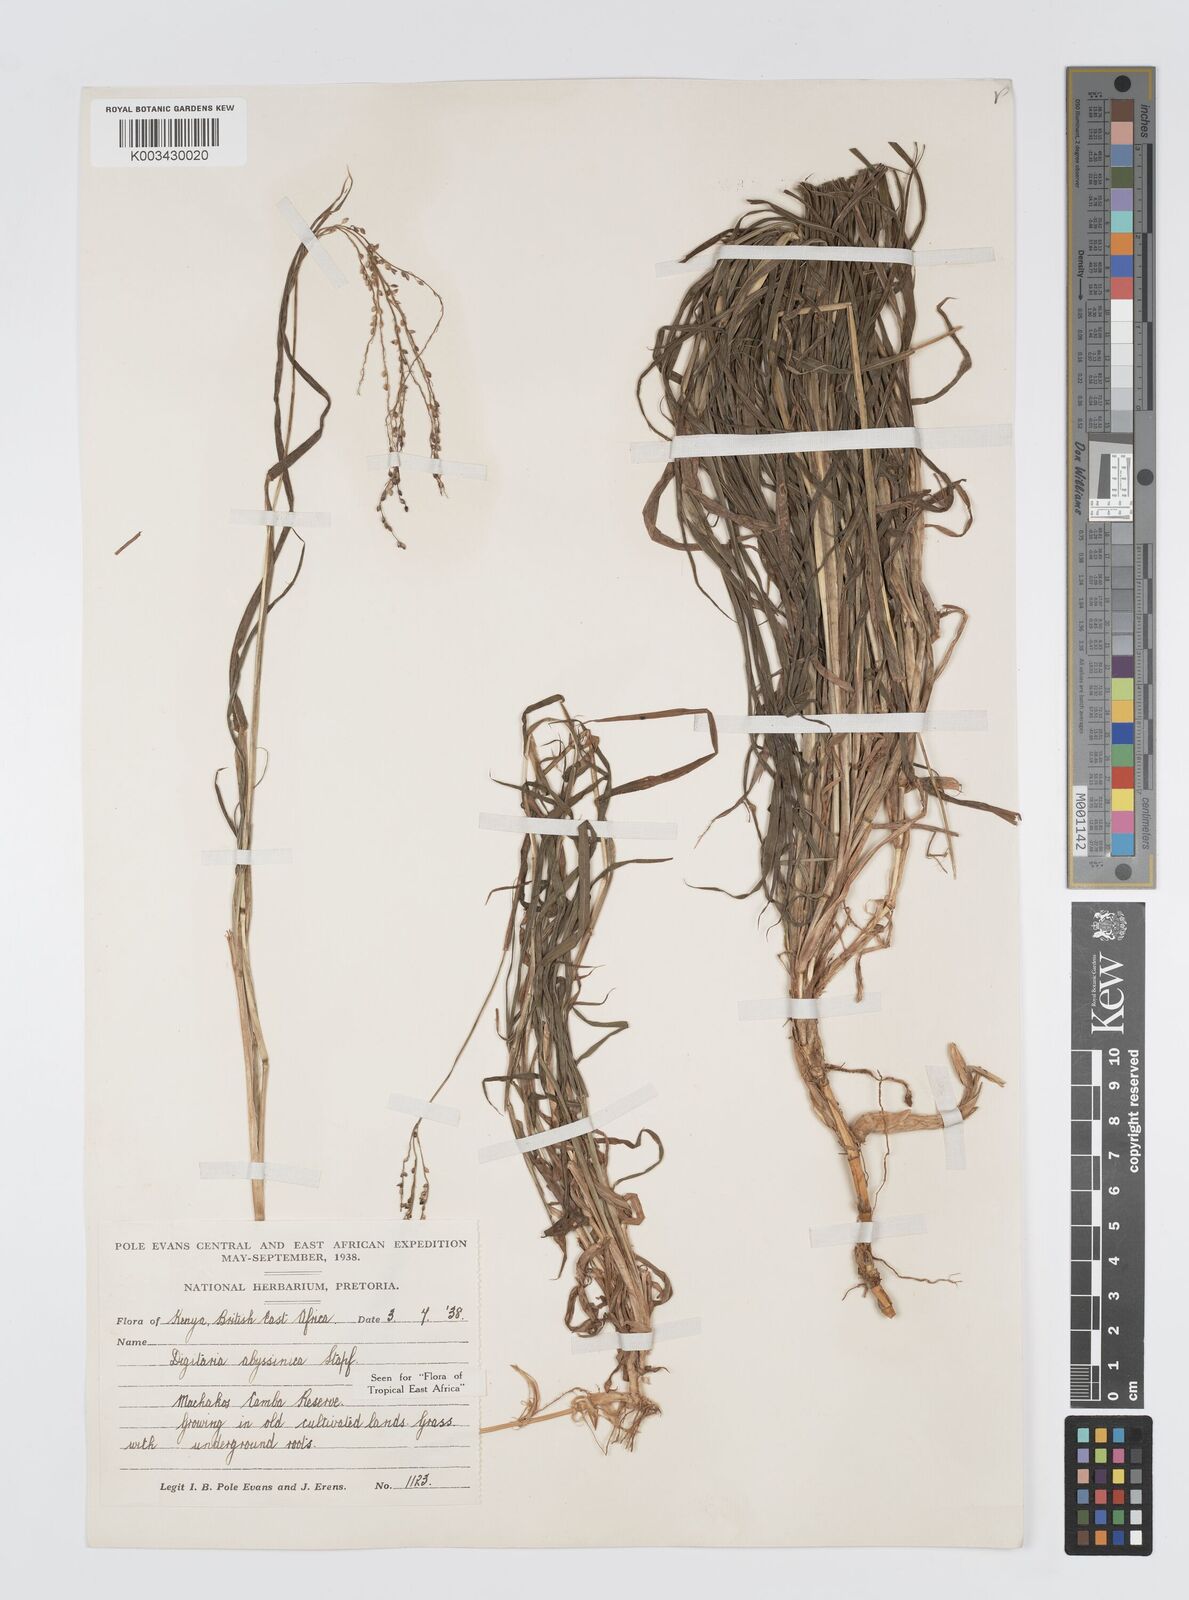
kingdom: Plantae
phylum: Tracheophyta
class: Liliopsida
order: Poales
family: Poaceae
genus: Digitaria
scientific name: Digitaria abyssinica
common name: African couchgrass
